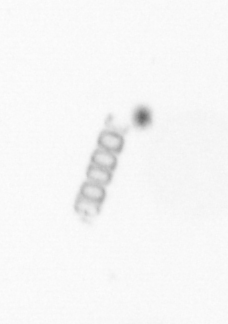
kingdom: Chromista
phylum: Ochrophyta
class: Bacillariophyceae
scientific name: Bacillariophyceae
